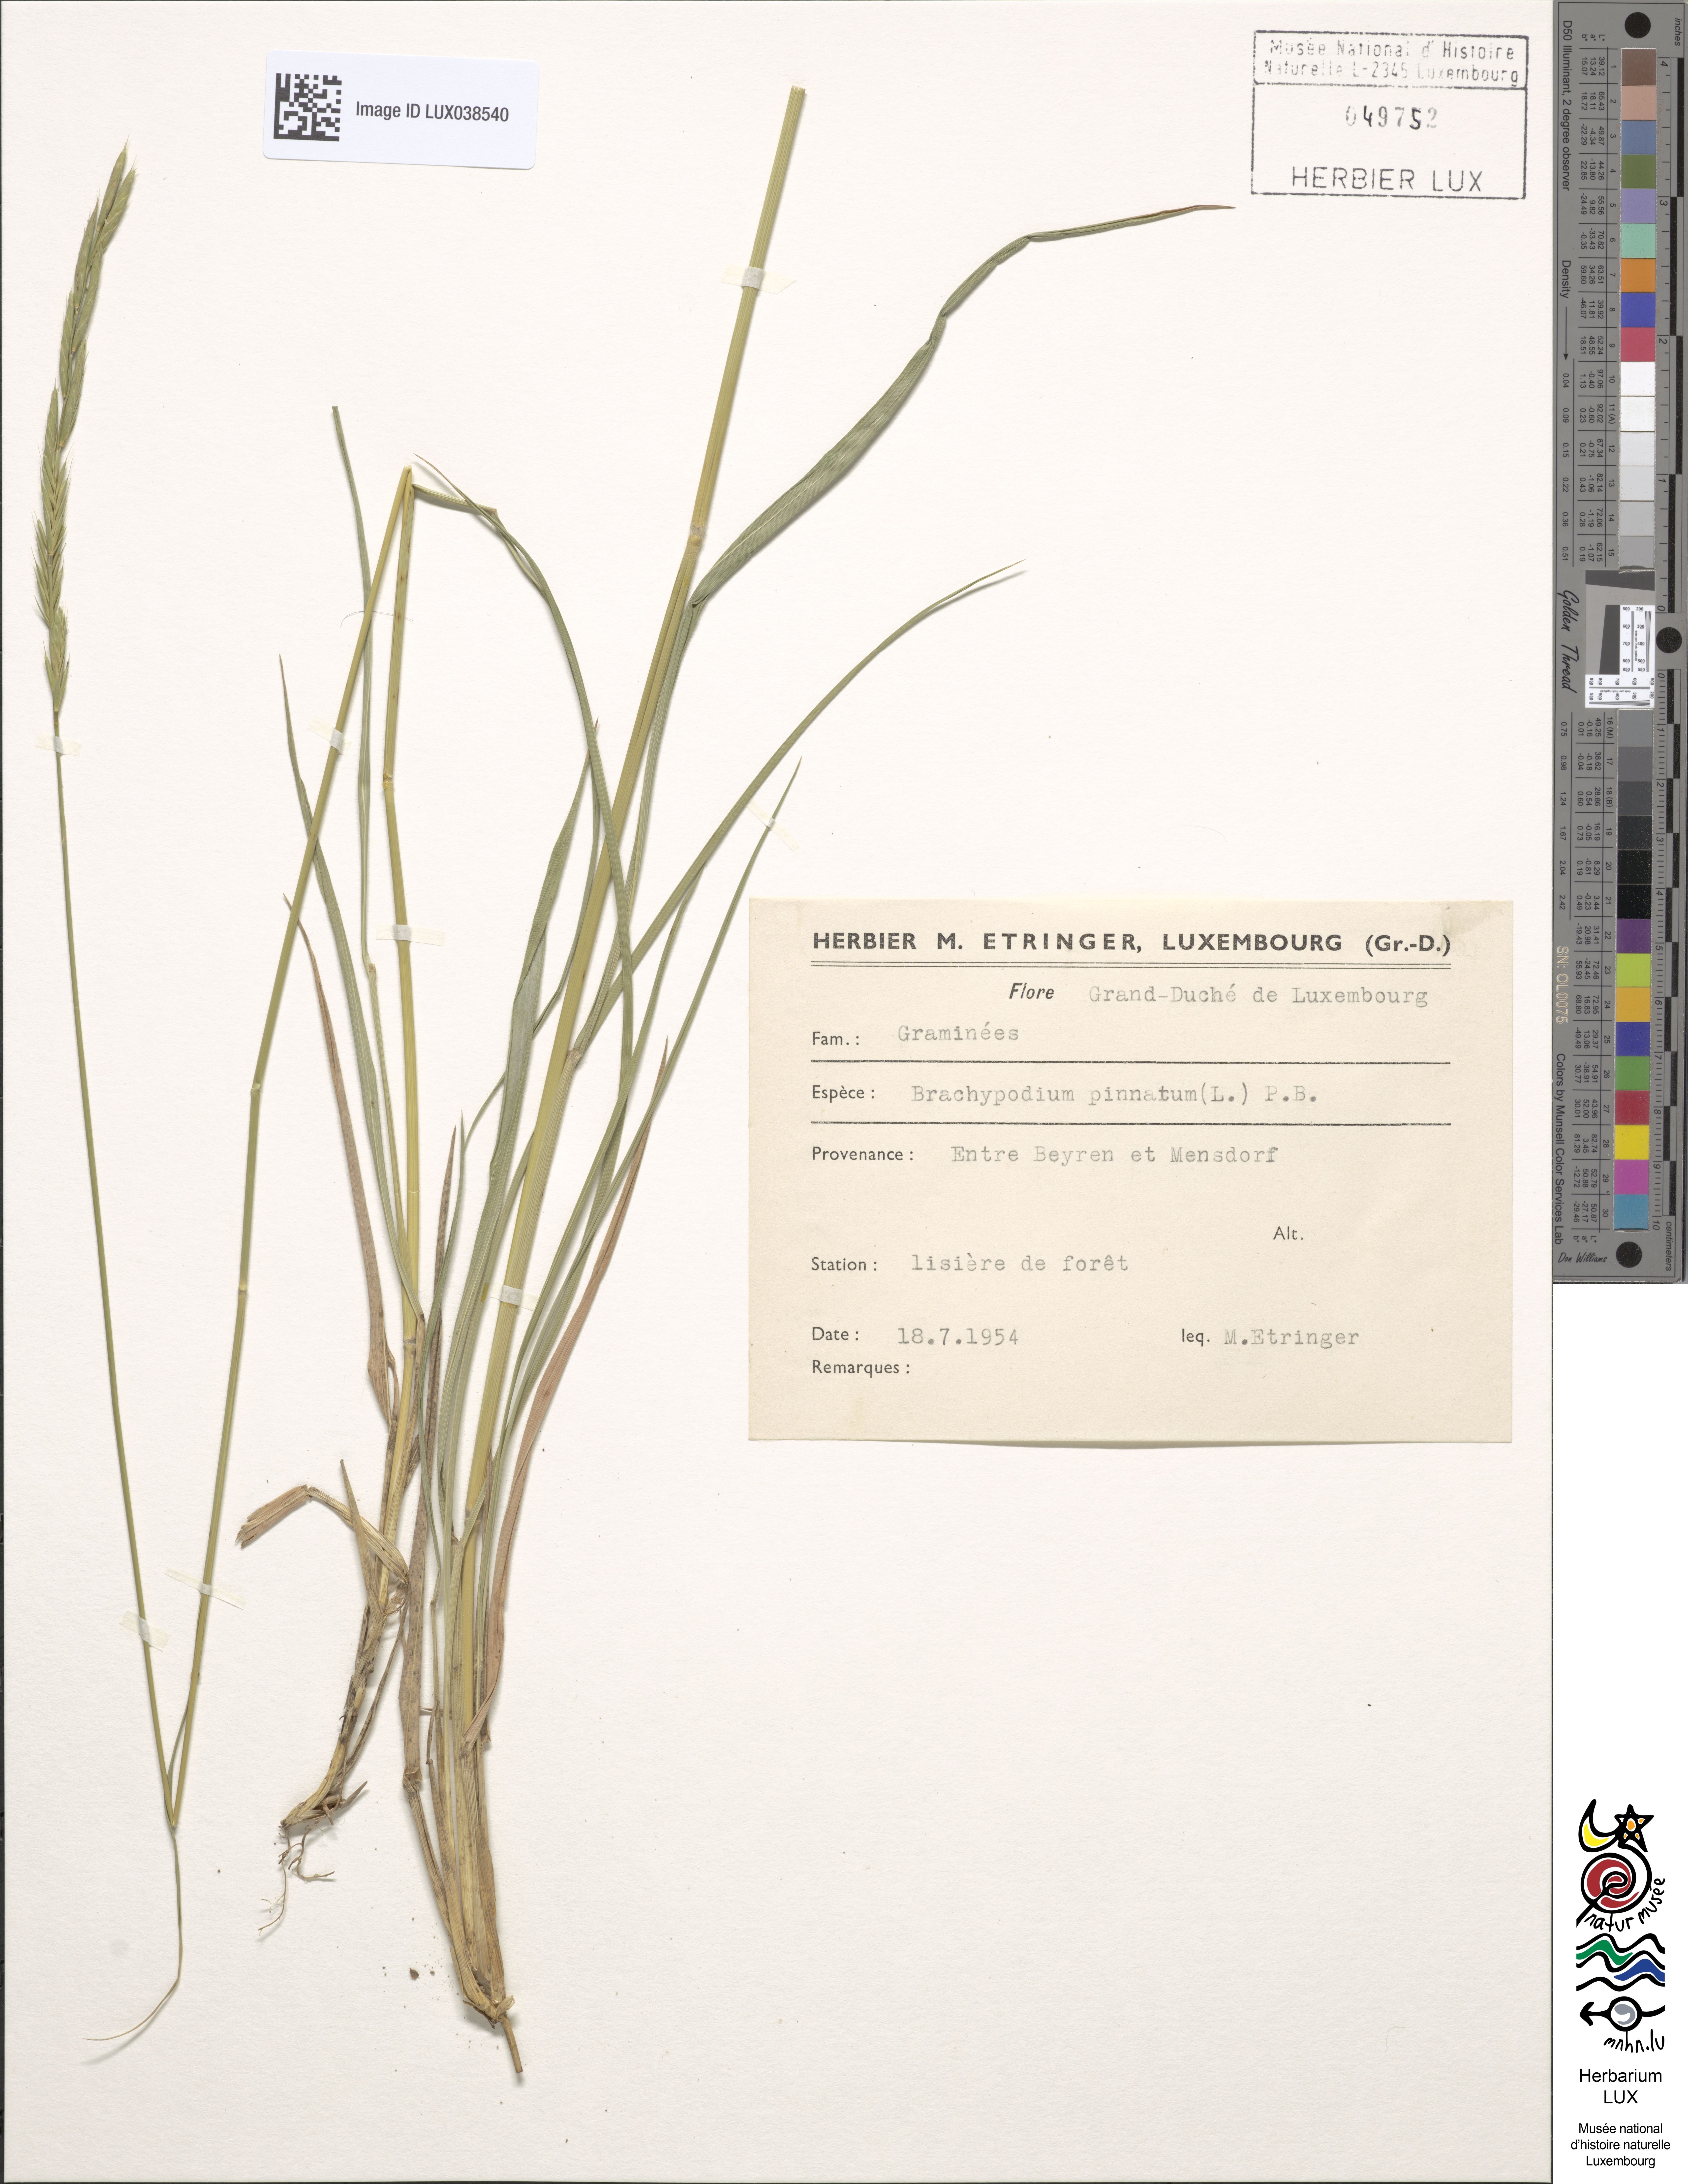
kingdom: Plantae
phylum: Tracheophyta
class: Liliopsida
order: Poales
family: Poaceae
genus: Brachypodium
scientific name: Brachypodium pinnatum
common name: Tor grass
